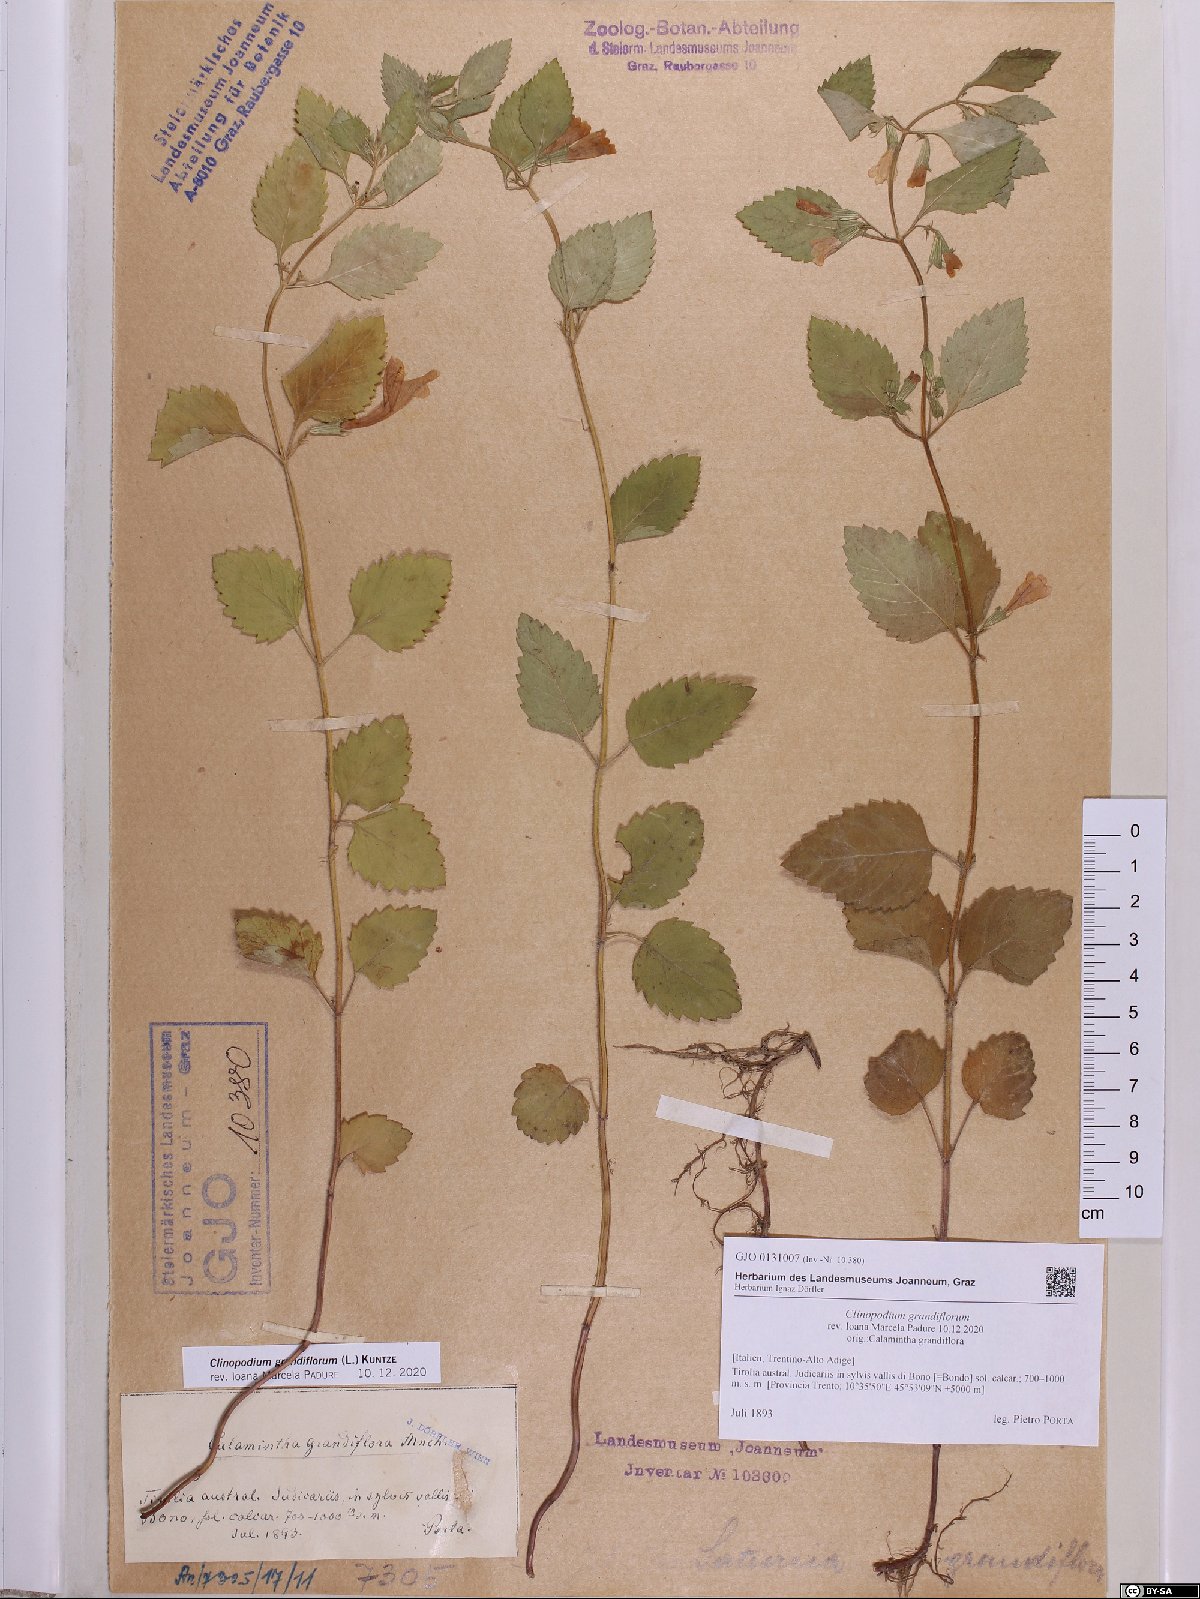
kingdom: Plantae
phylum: Tracheophyta
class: Magnoliopsida
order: Lamiales
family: Lamiaceae
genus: Clinopodium
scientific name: Clinopodium grandiflorum
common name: Greater calamint
